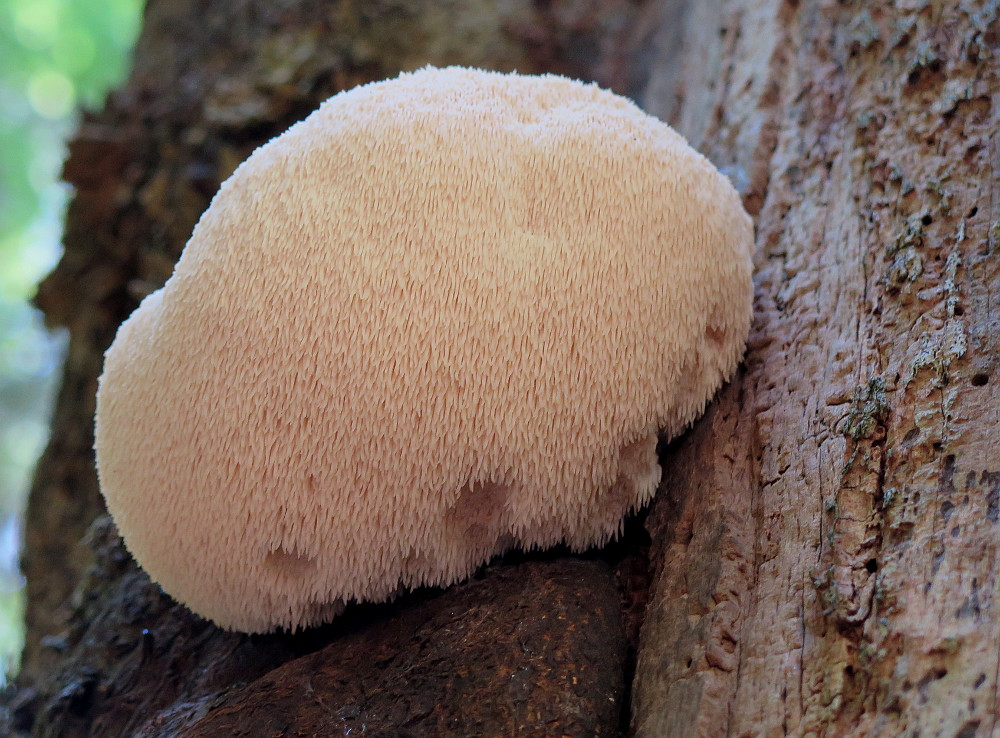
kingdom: Fungi
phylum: Basidiomycota
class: Agaricomycetes
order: Russulales
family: Hericiaceae
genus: Hericium
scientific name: Hericium erinaceus
